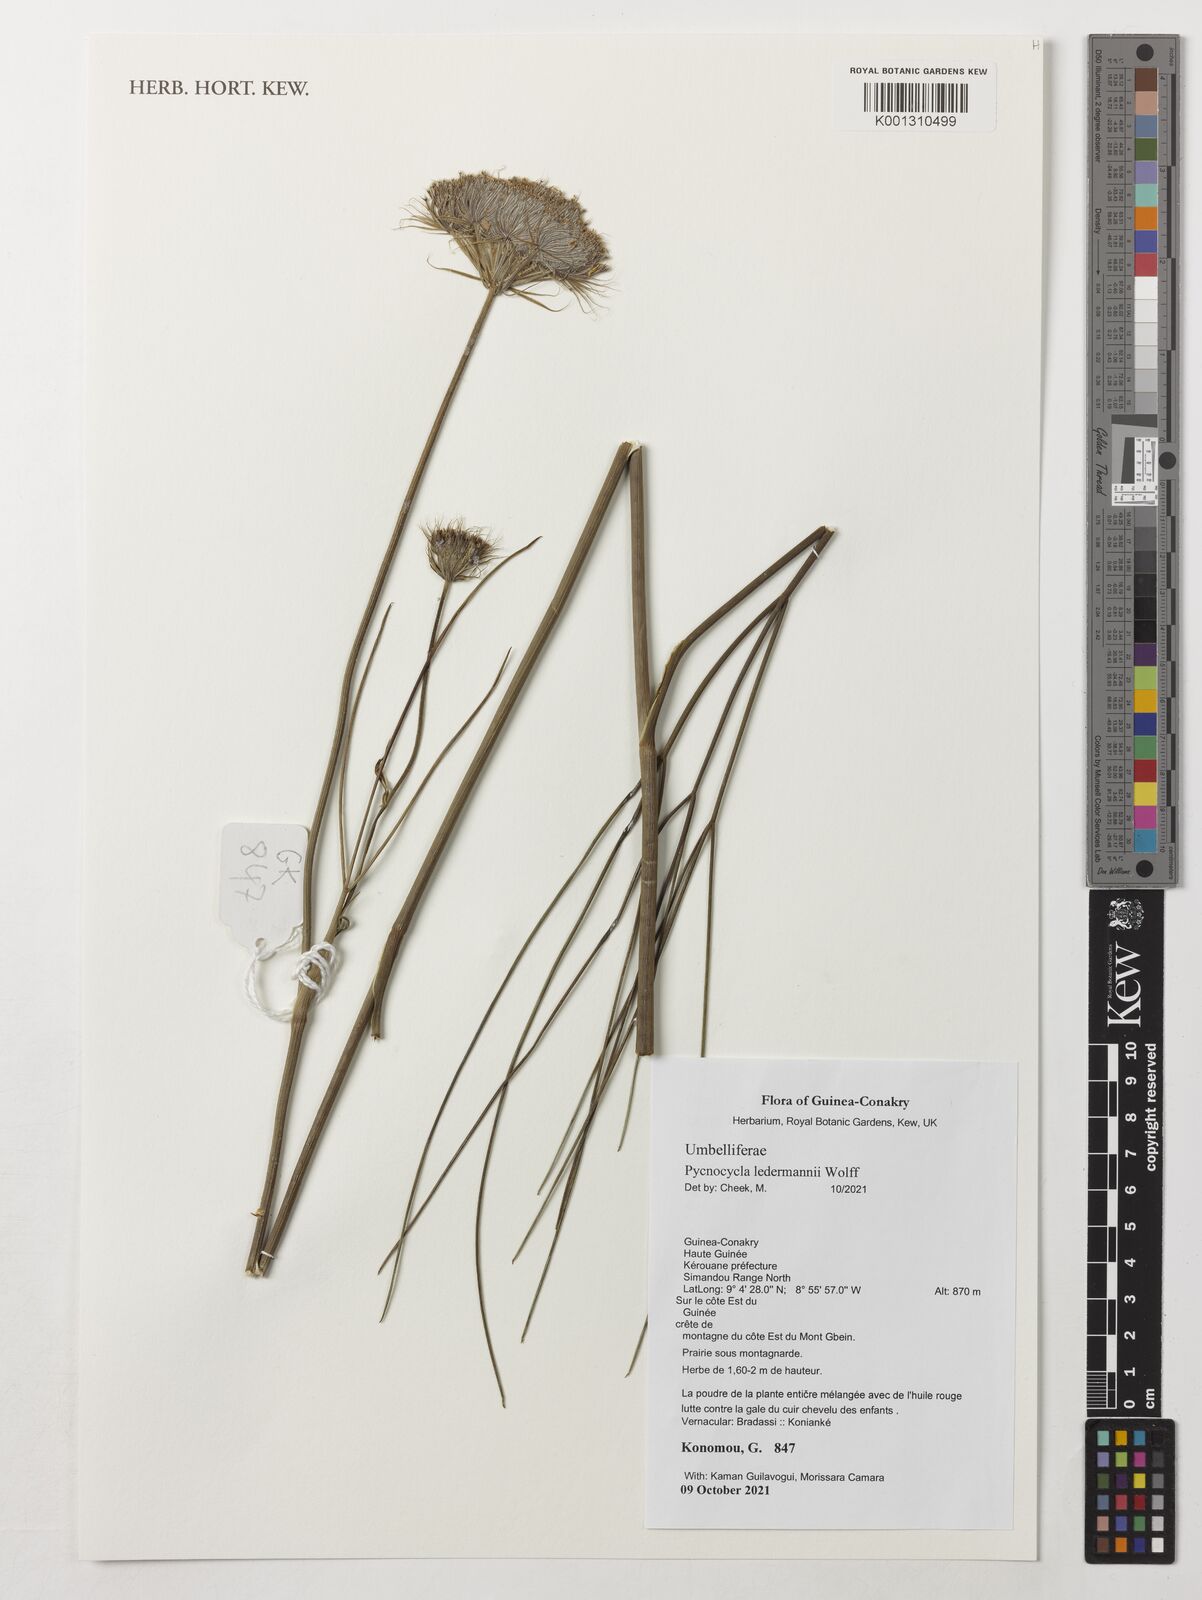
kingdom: Plantae
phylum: Tracheophyta
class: Magnoliopsida
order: Apiales
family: Apiaceae
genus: Pycnocycla
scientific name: Pycnocycla ledermannii
